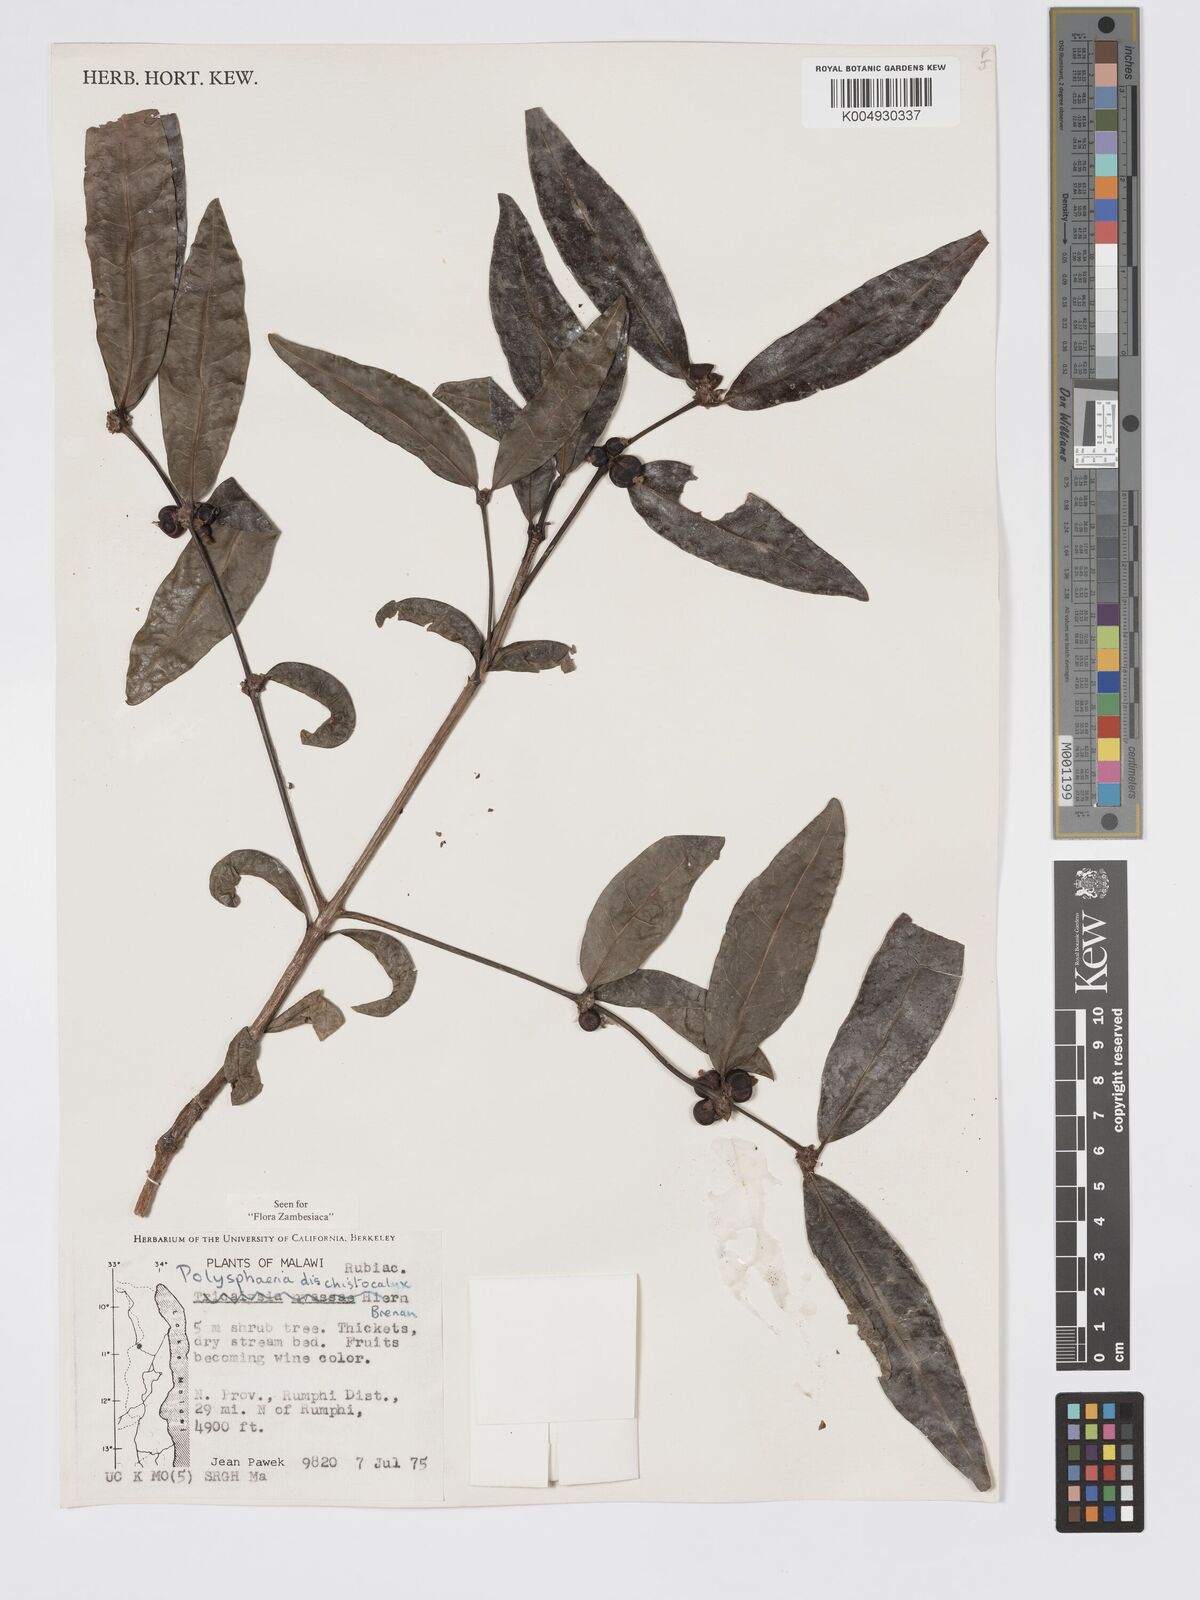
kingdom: Plantae
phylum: Tracheophyta
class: Magnoliopsida
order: Gentianales
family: Rubiaceae
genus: Polysphaeria
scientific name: Polysphaeria dischistocalyx
